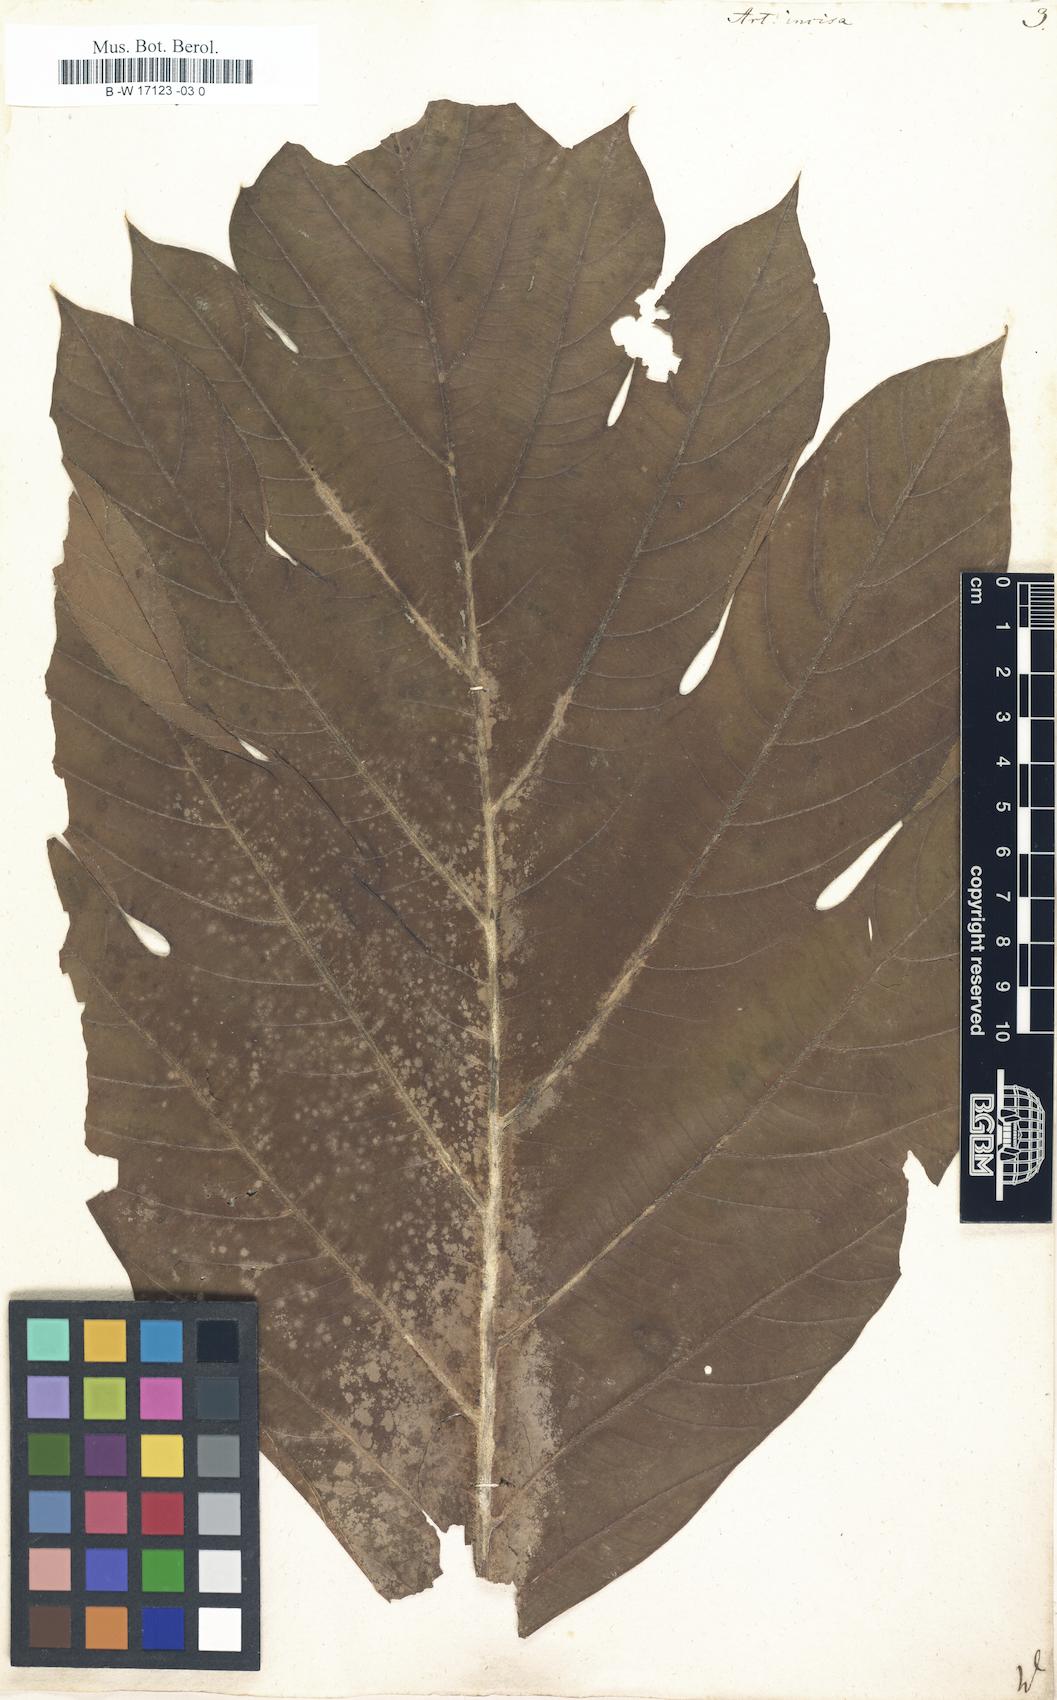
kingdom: Plantae
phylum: Tracheophyta
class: Magnoliopsida
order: Rosales
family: Moraceae
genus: Artocarpus
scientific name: Artocarpus altilis
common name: Breadfruit
